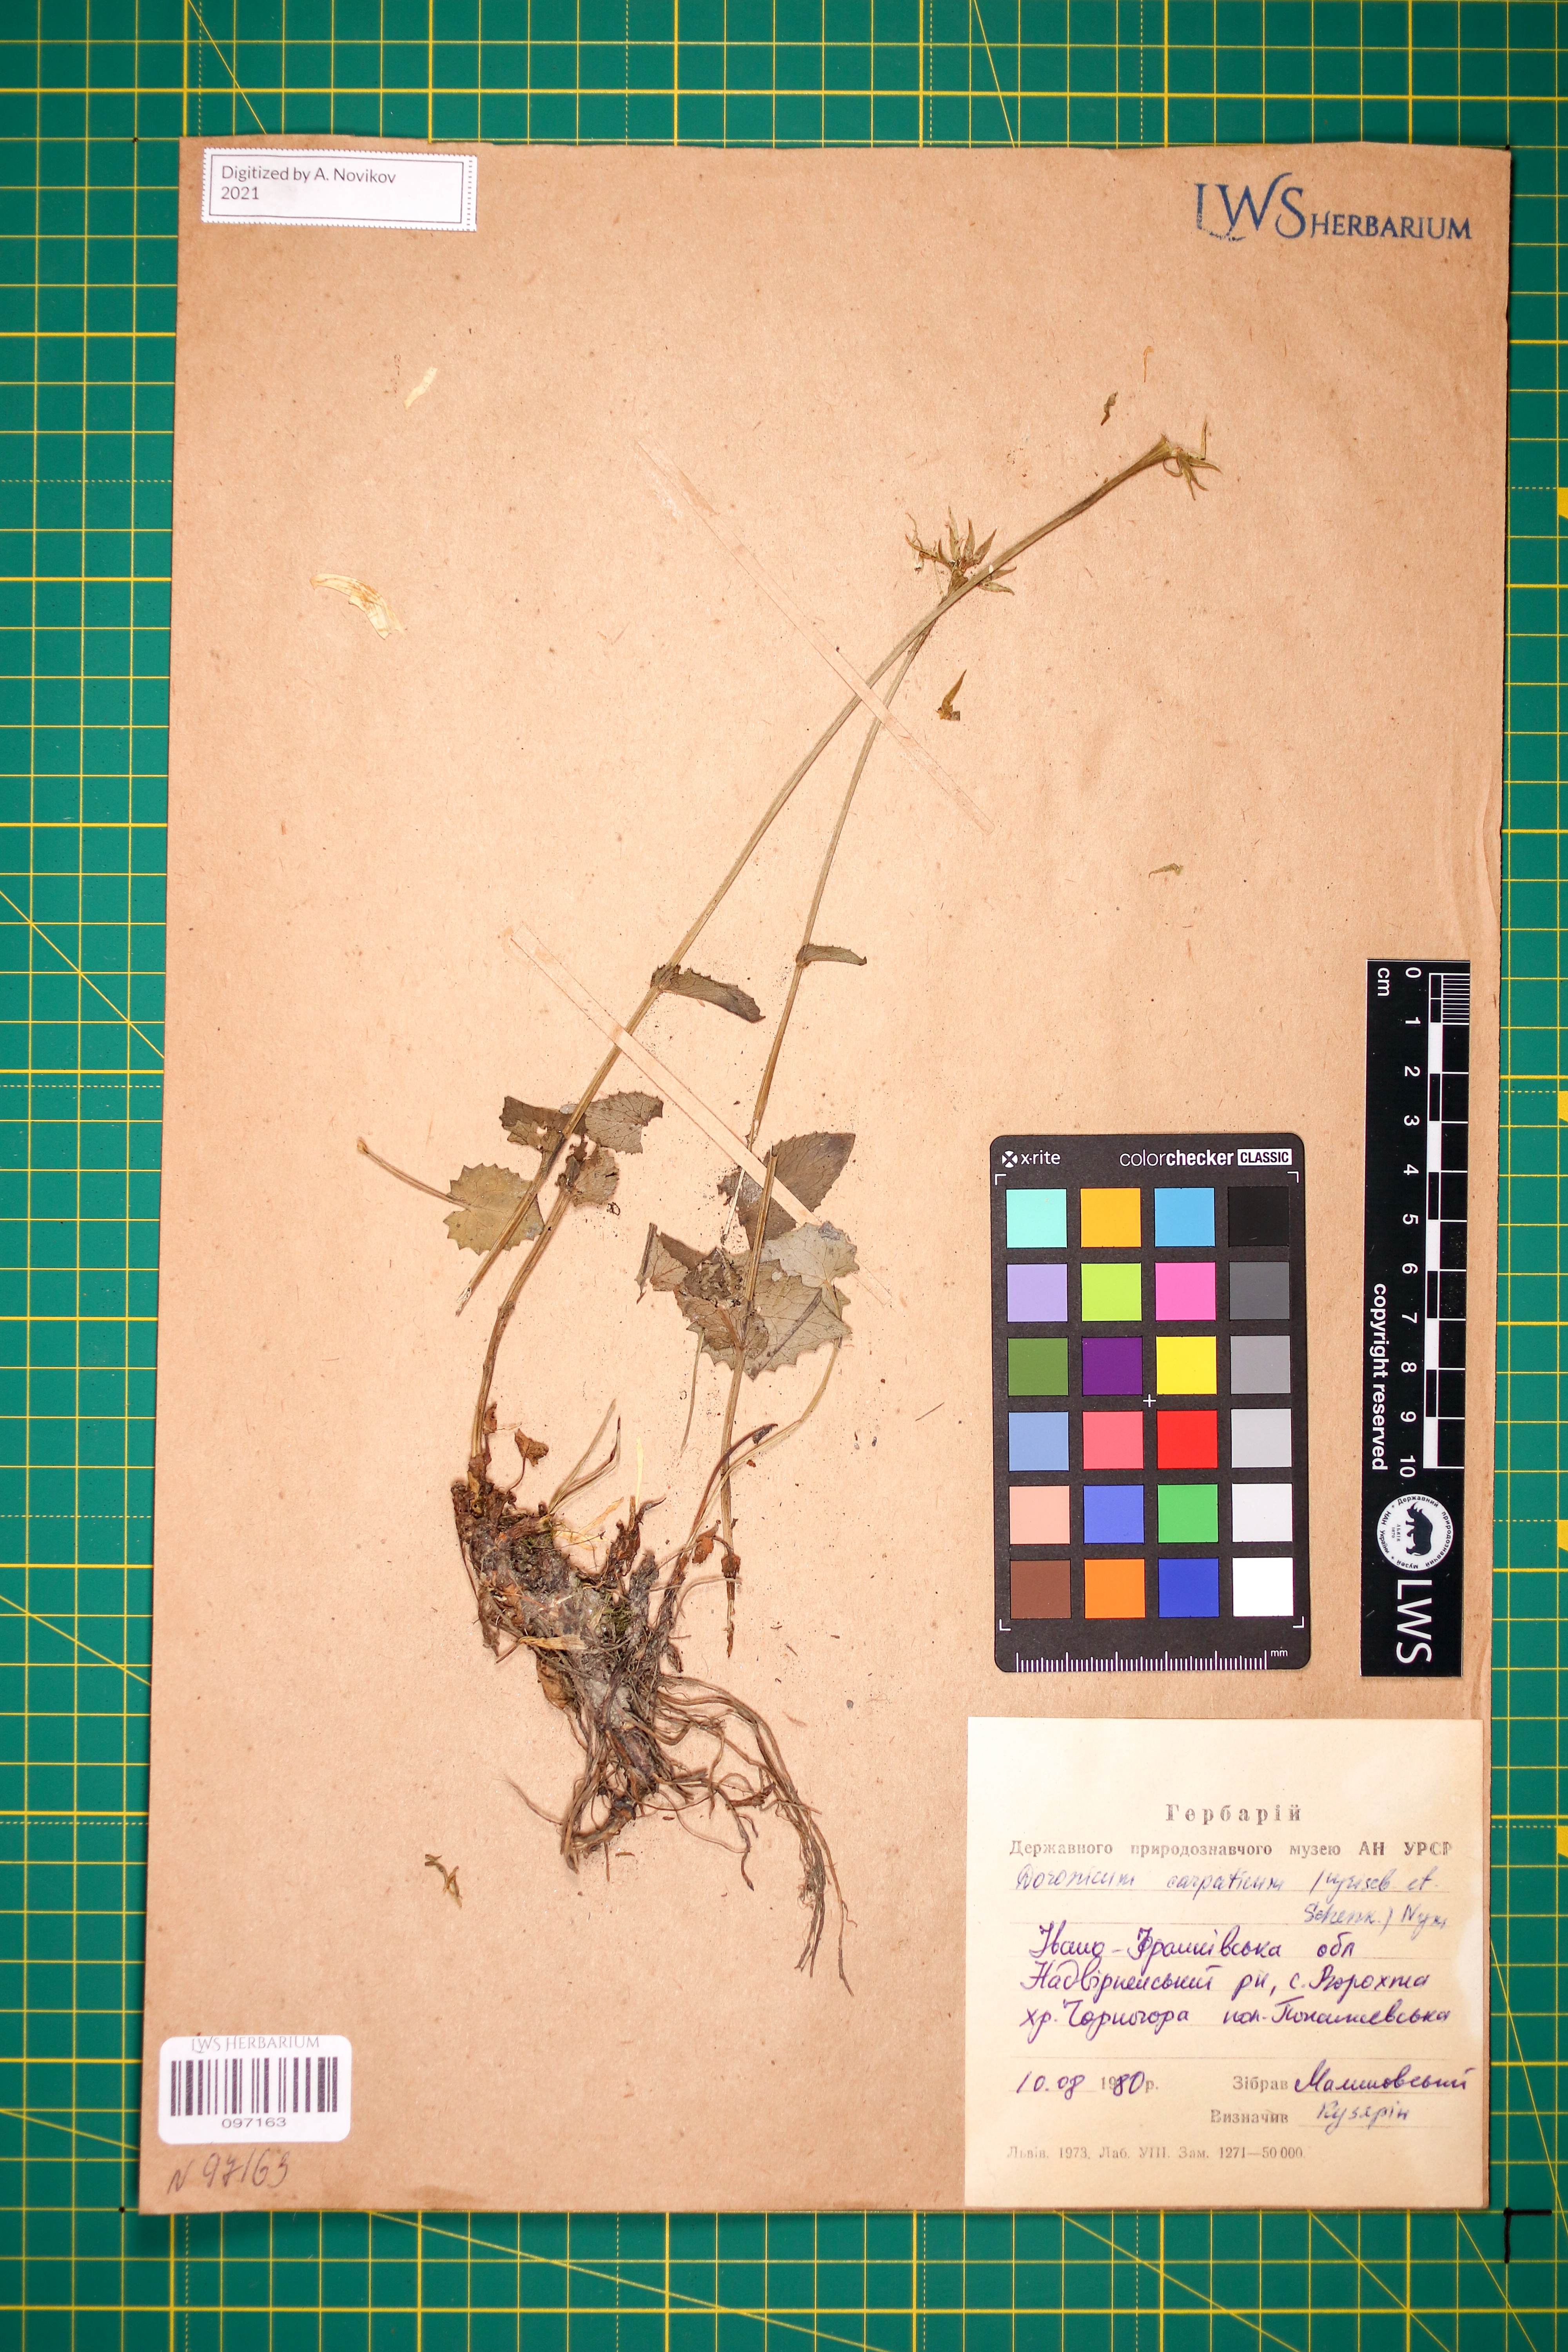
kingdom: Plantae
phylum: Tracheophyta
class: Magnoliopsida
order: Asterales
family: Asteraceae
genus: Doronicum
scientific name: Doronicum carpaticum
